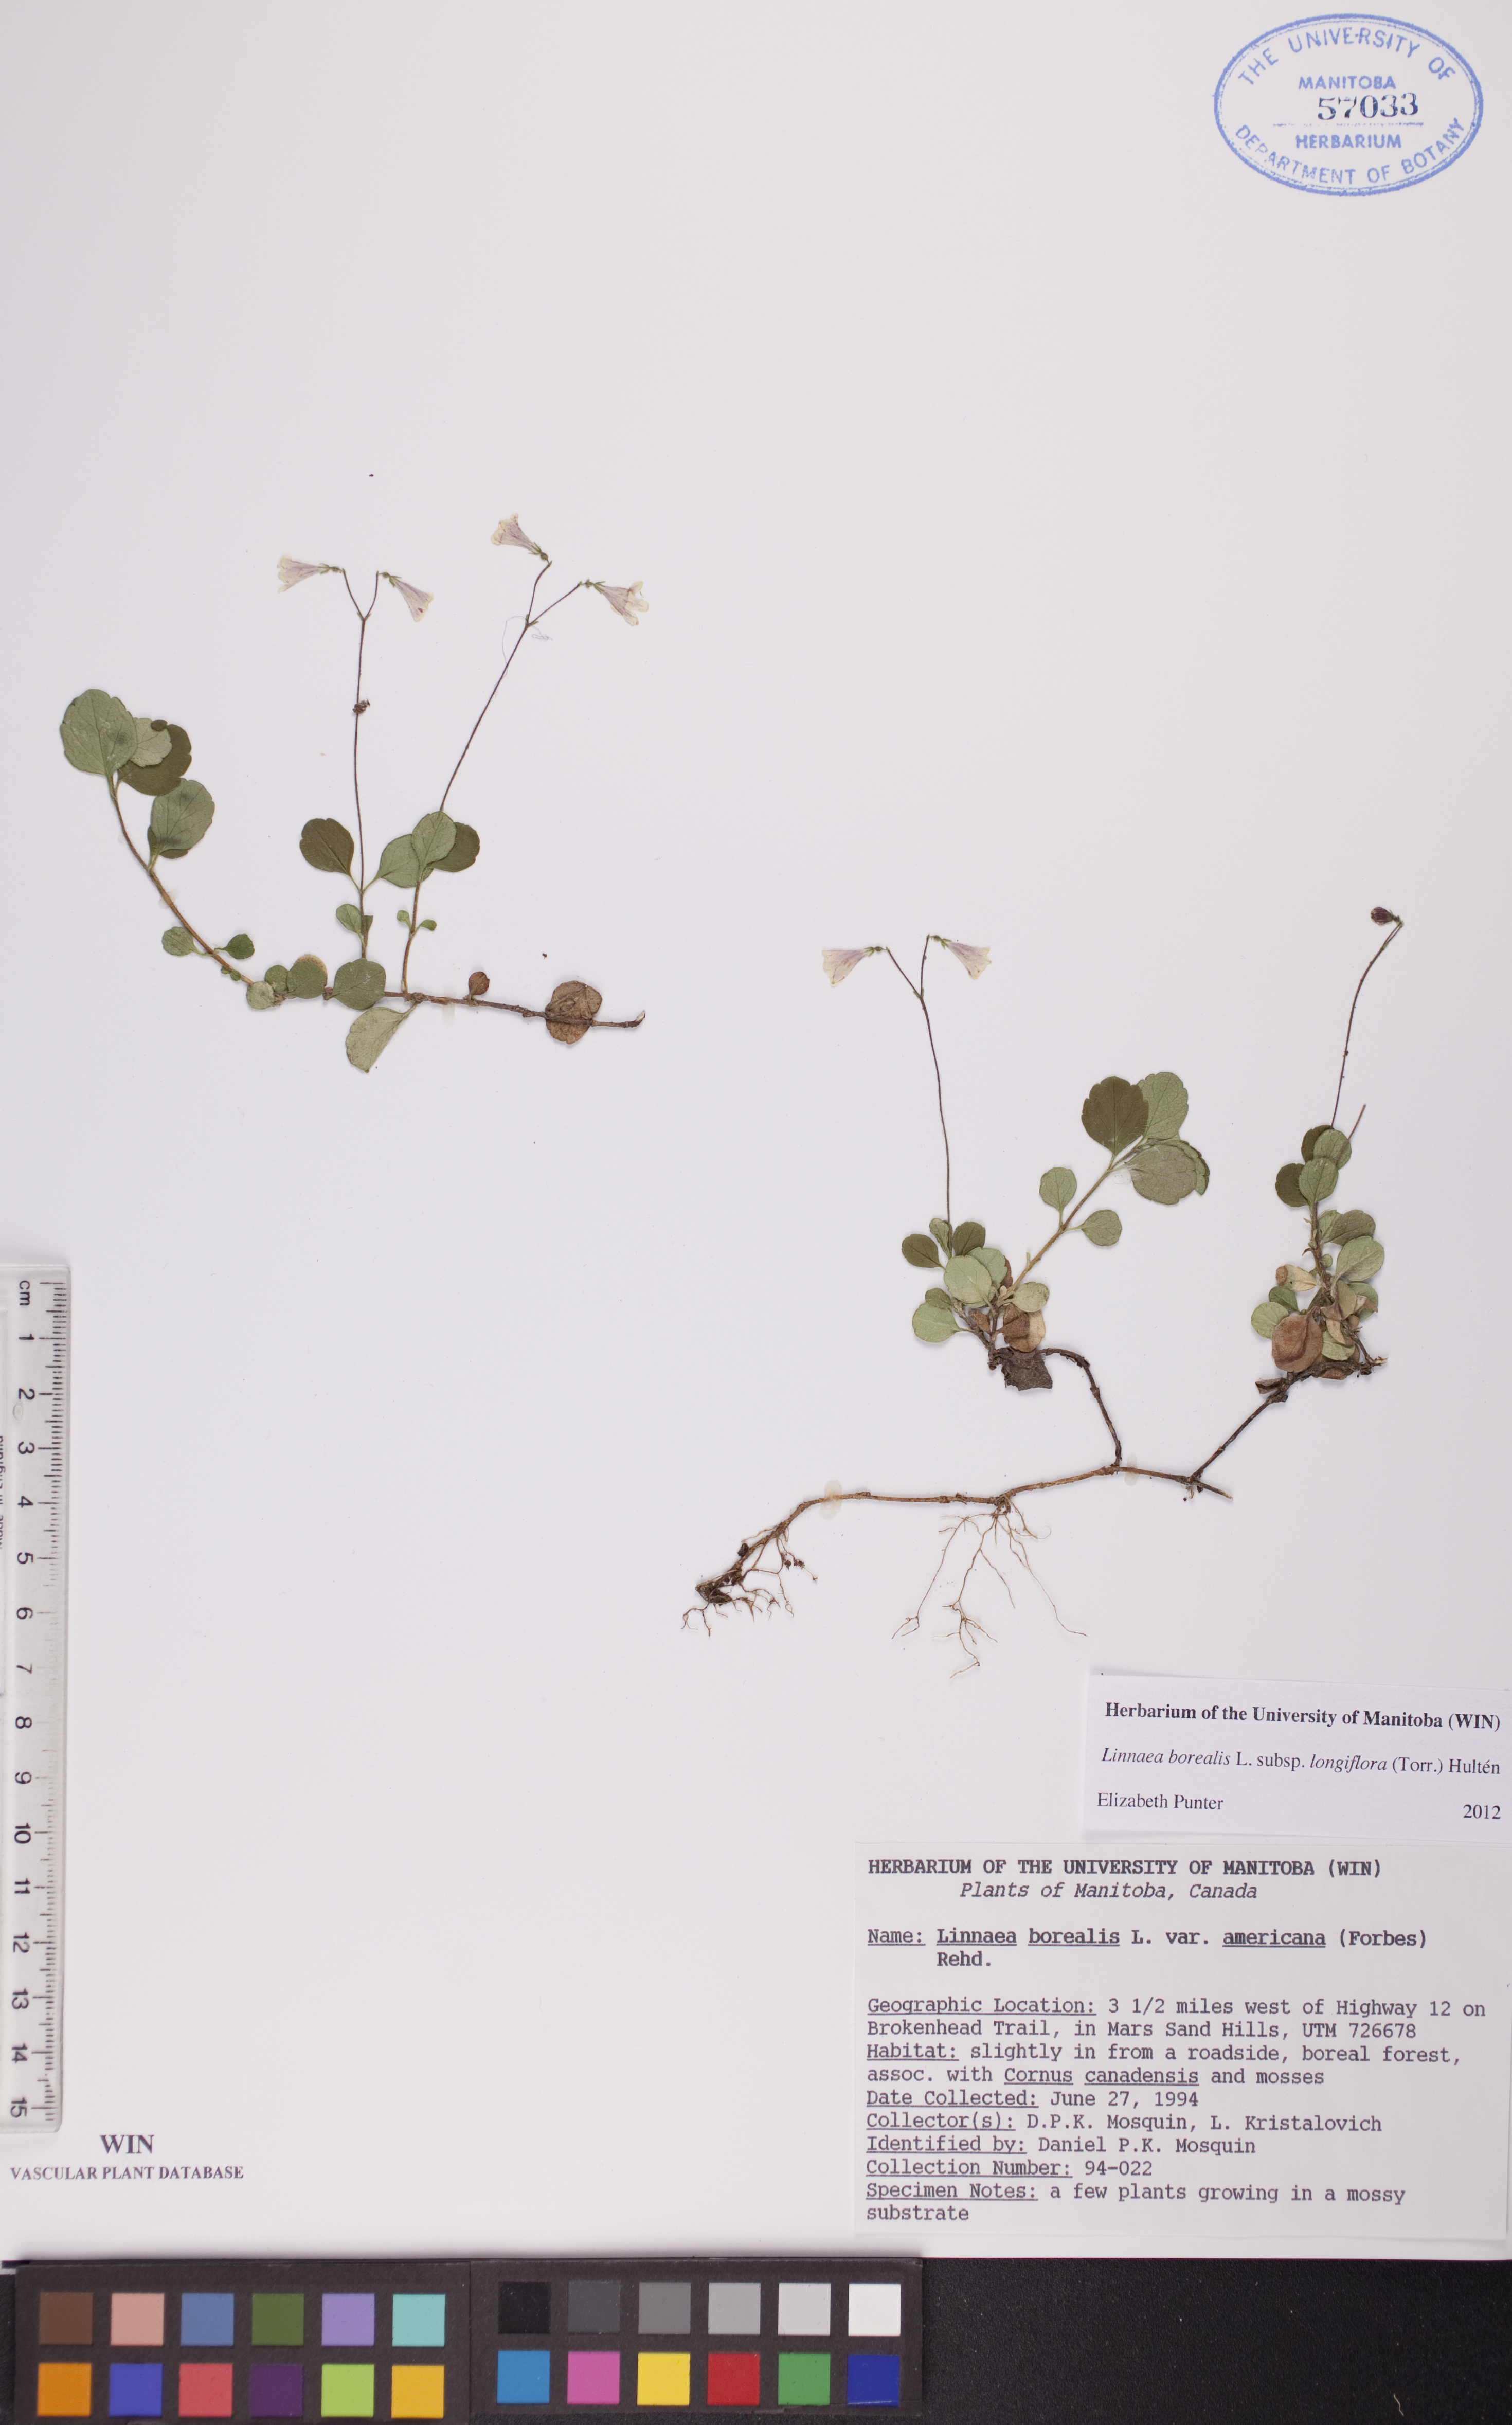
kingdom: Plantae
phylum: Tracheophyta
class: Magnoliopsida
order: Dipsacales
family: Caprifoliaceae
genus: Linnaea
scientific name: Linnaea borealis
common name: Twinflower
